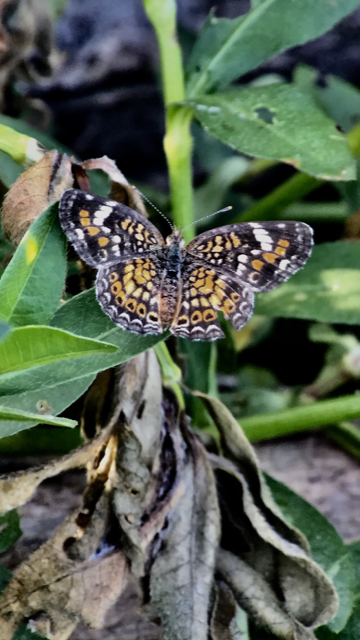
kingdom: Animalia
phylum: Arthropoda
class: Insecta
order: Lepidoptera
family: Nymphalidae
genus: Phyciodes
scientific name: Phyciodes phaon
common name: Phaon Crescent
